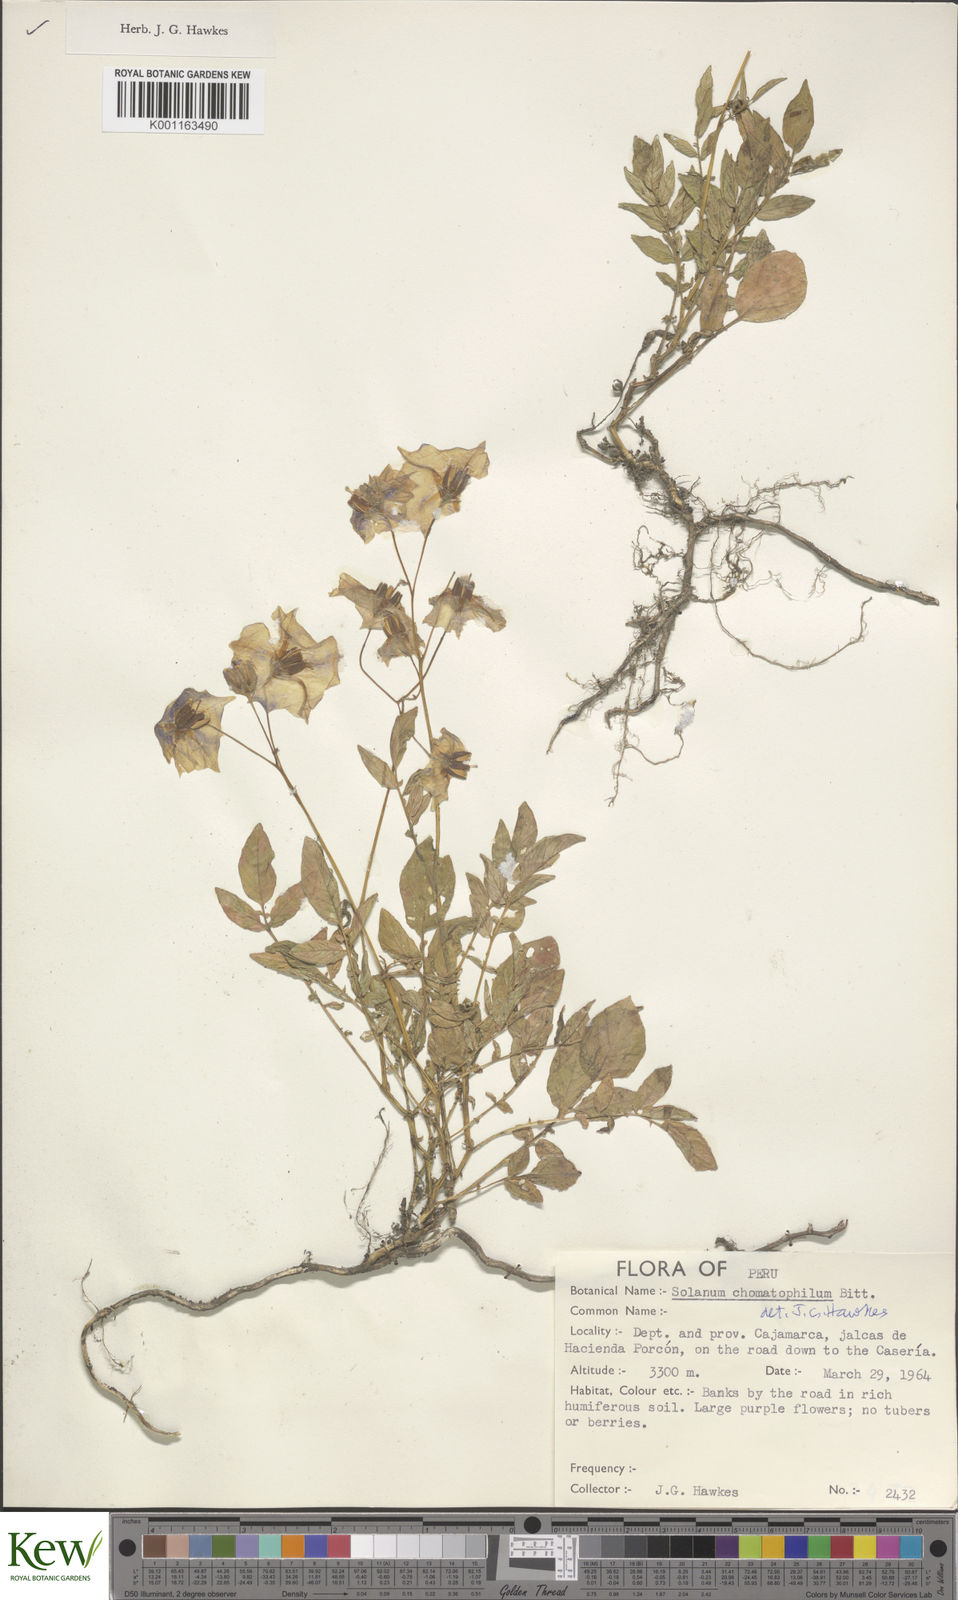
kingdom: Plantae
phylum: Tracheophyta
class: Magnoliopsida
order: Solanales
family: Solanaceae
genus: Solanum
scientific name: Solanum chomatophilum
